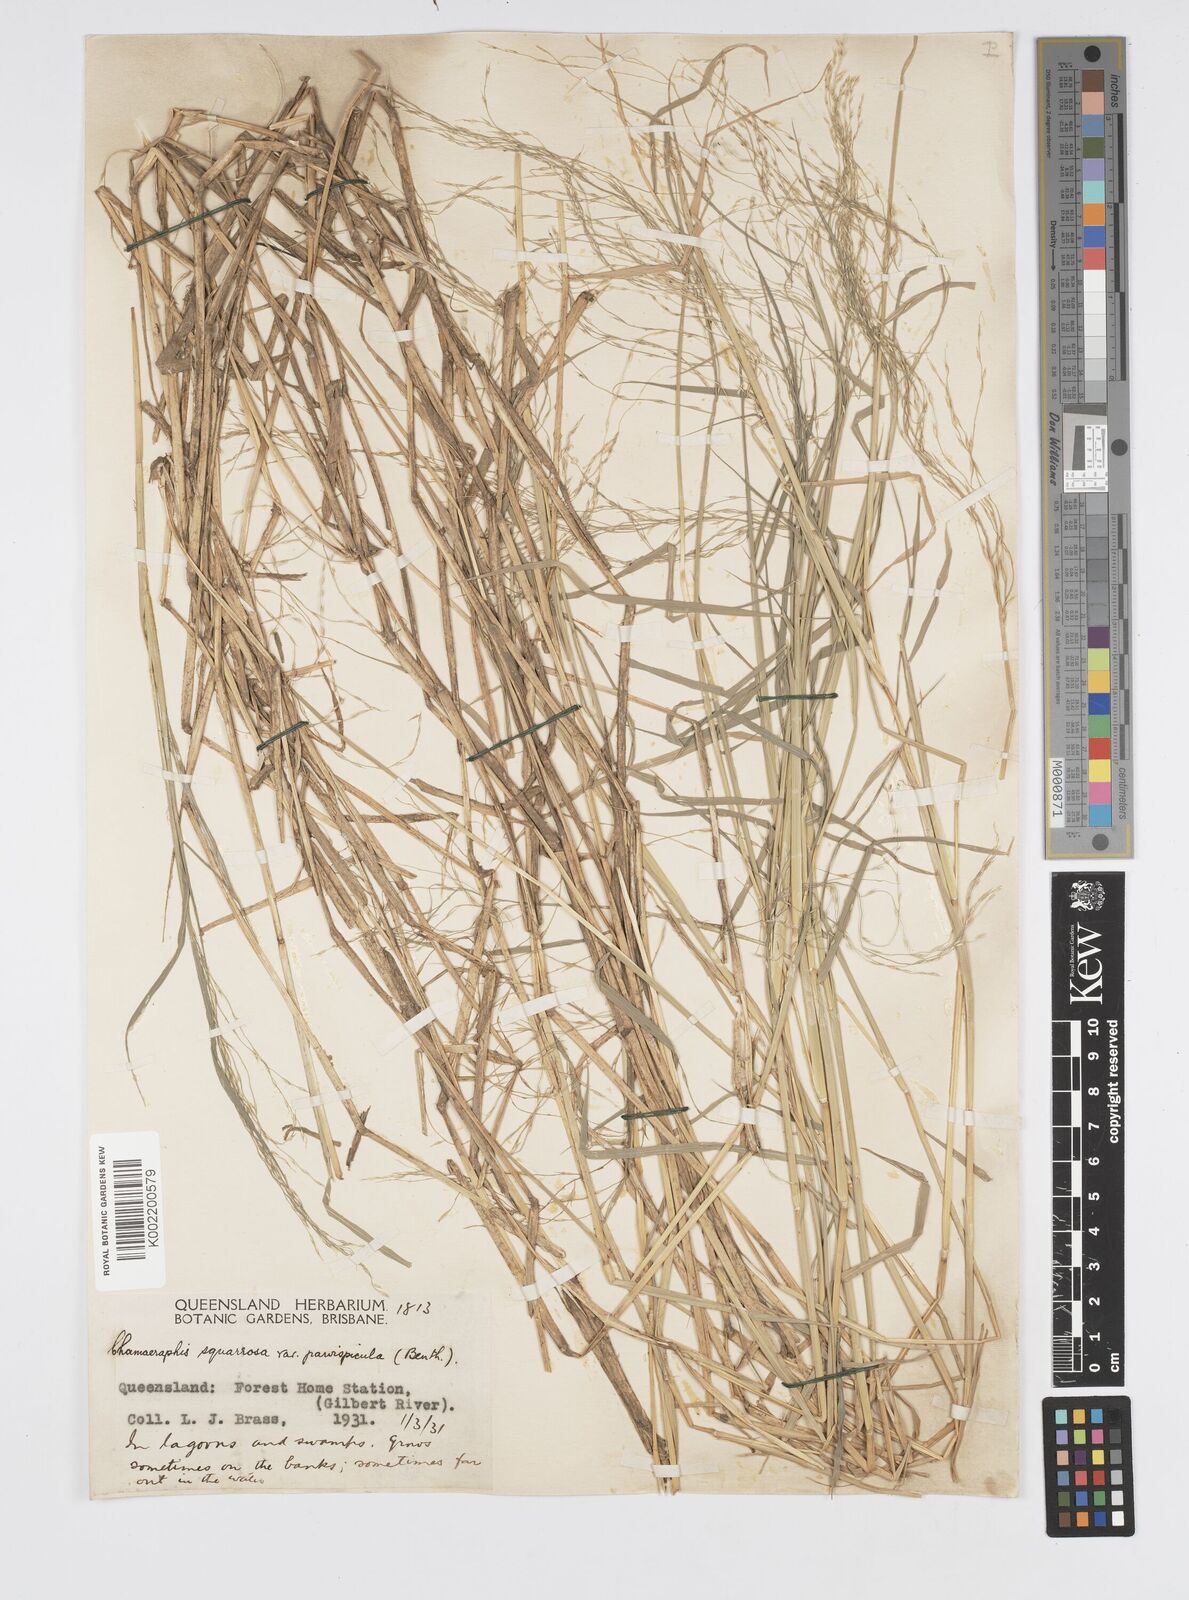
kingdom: Plantae
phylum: Tracheophyta
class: Liliopsida
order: Poales
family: Poaceae
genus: Pseudoraphis
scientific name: Pseudoraphis spinescens
